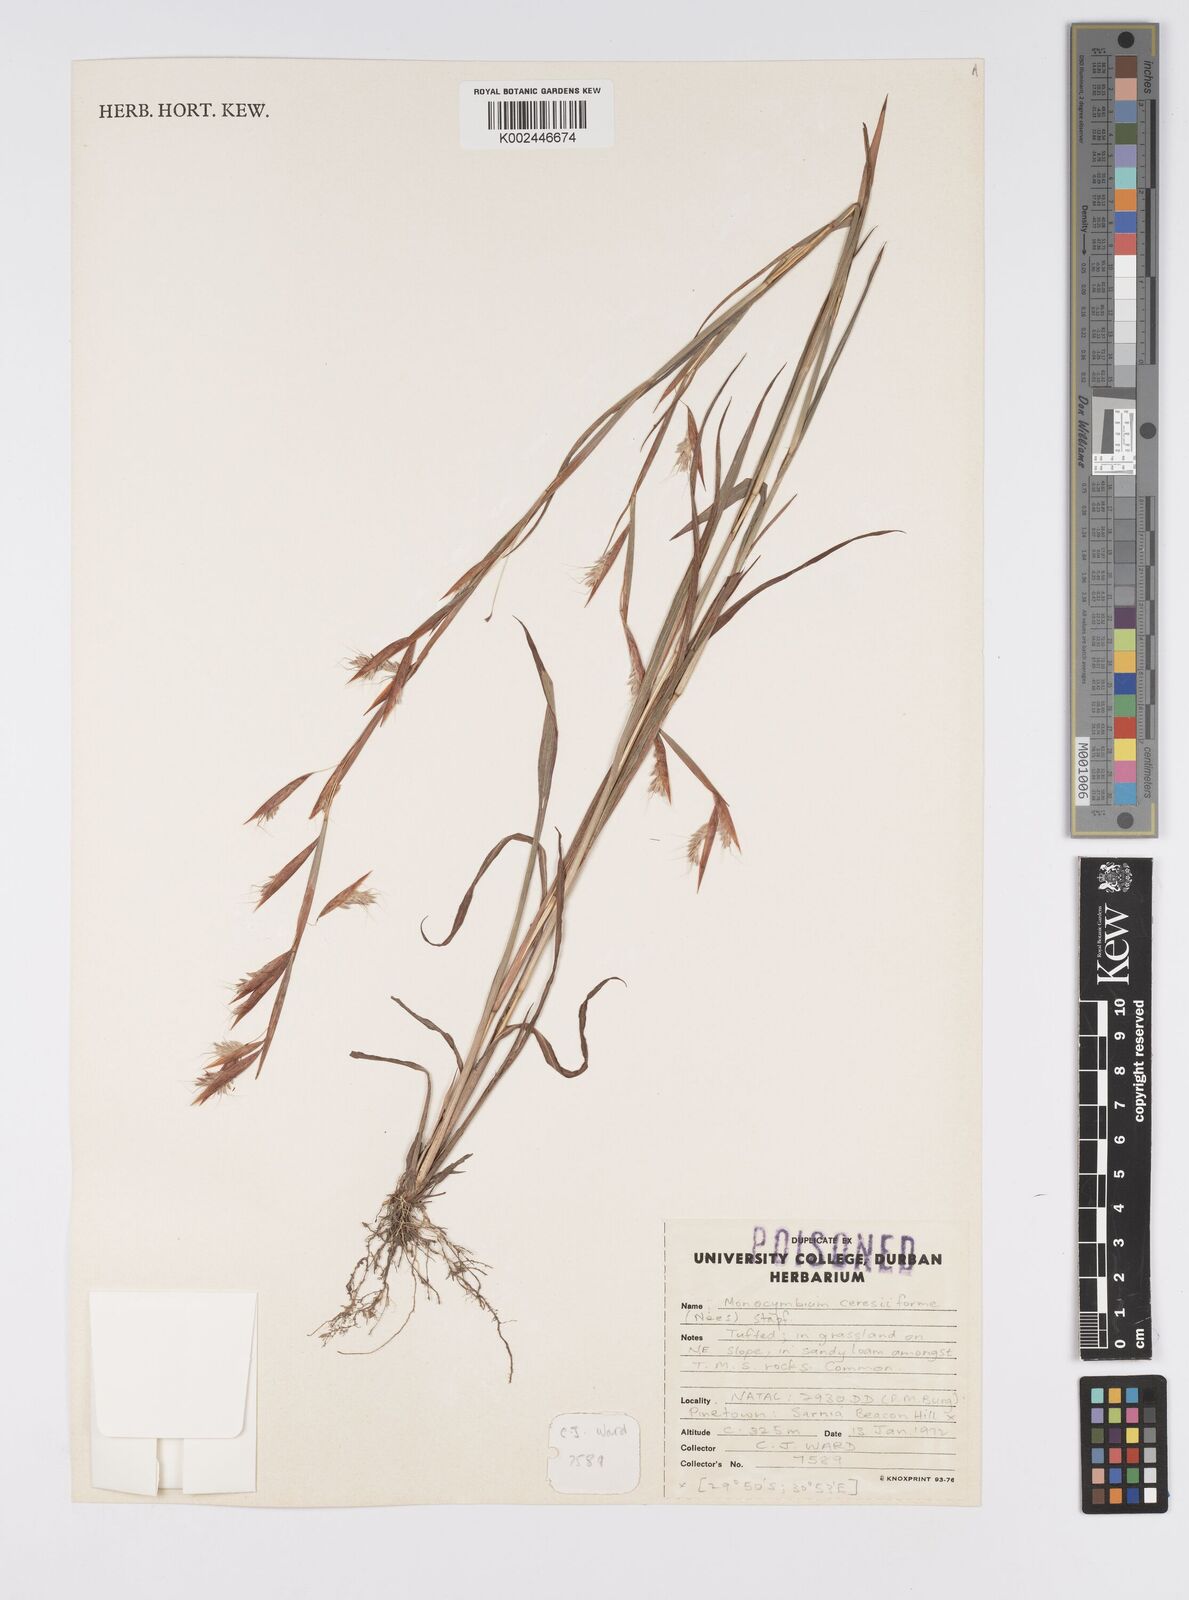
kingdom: Plantae
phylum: Tracheophyta
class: Liliopsida
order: Poales
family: Poaceae
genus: Monocymbium
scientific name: Monocymbium ceresiiforme
